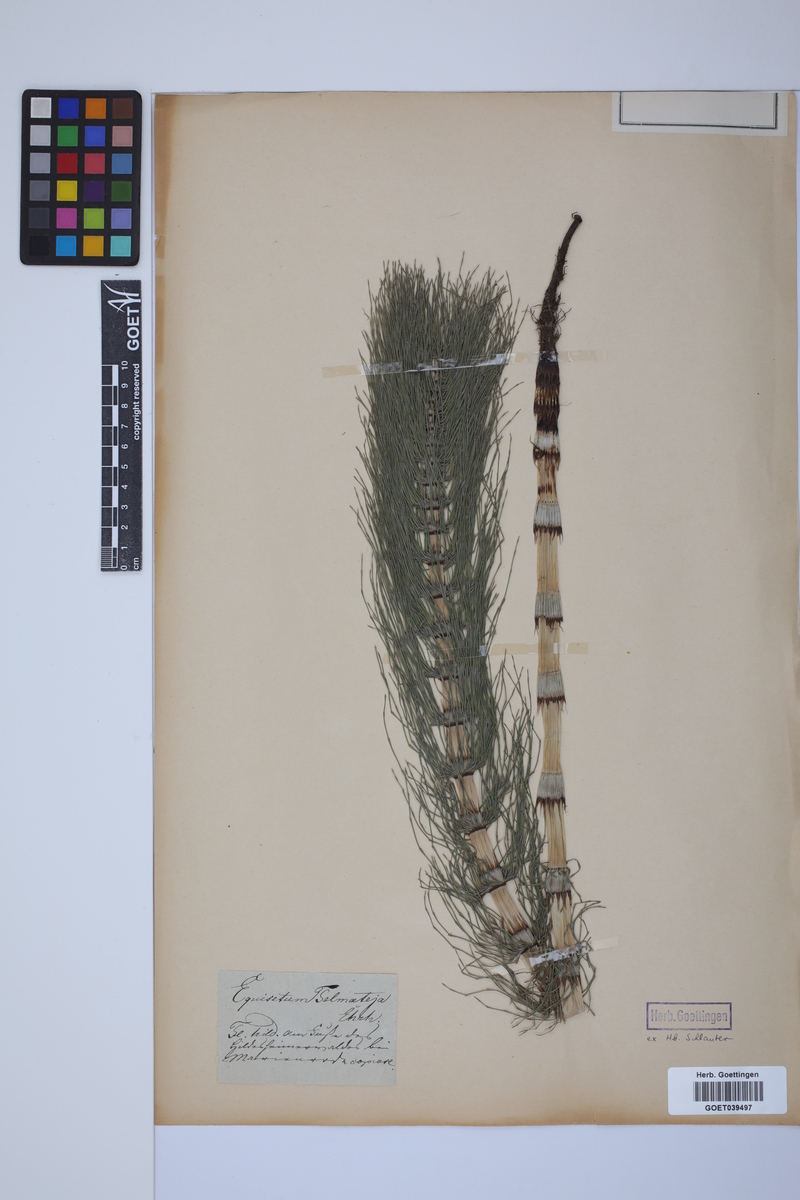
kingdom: Plantae
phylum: Tracheophyta
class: Polypodiopsida
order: Equisetales
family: Equisetaceae
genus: Equisetum
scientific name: Equisetum telmateia
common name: Great horsetail
